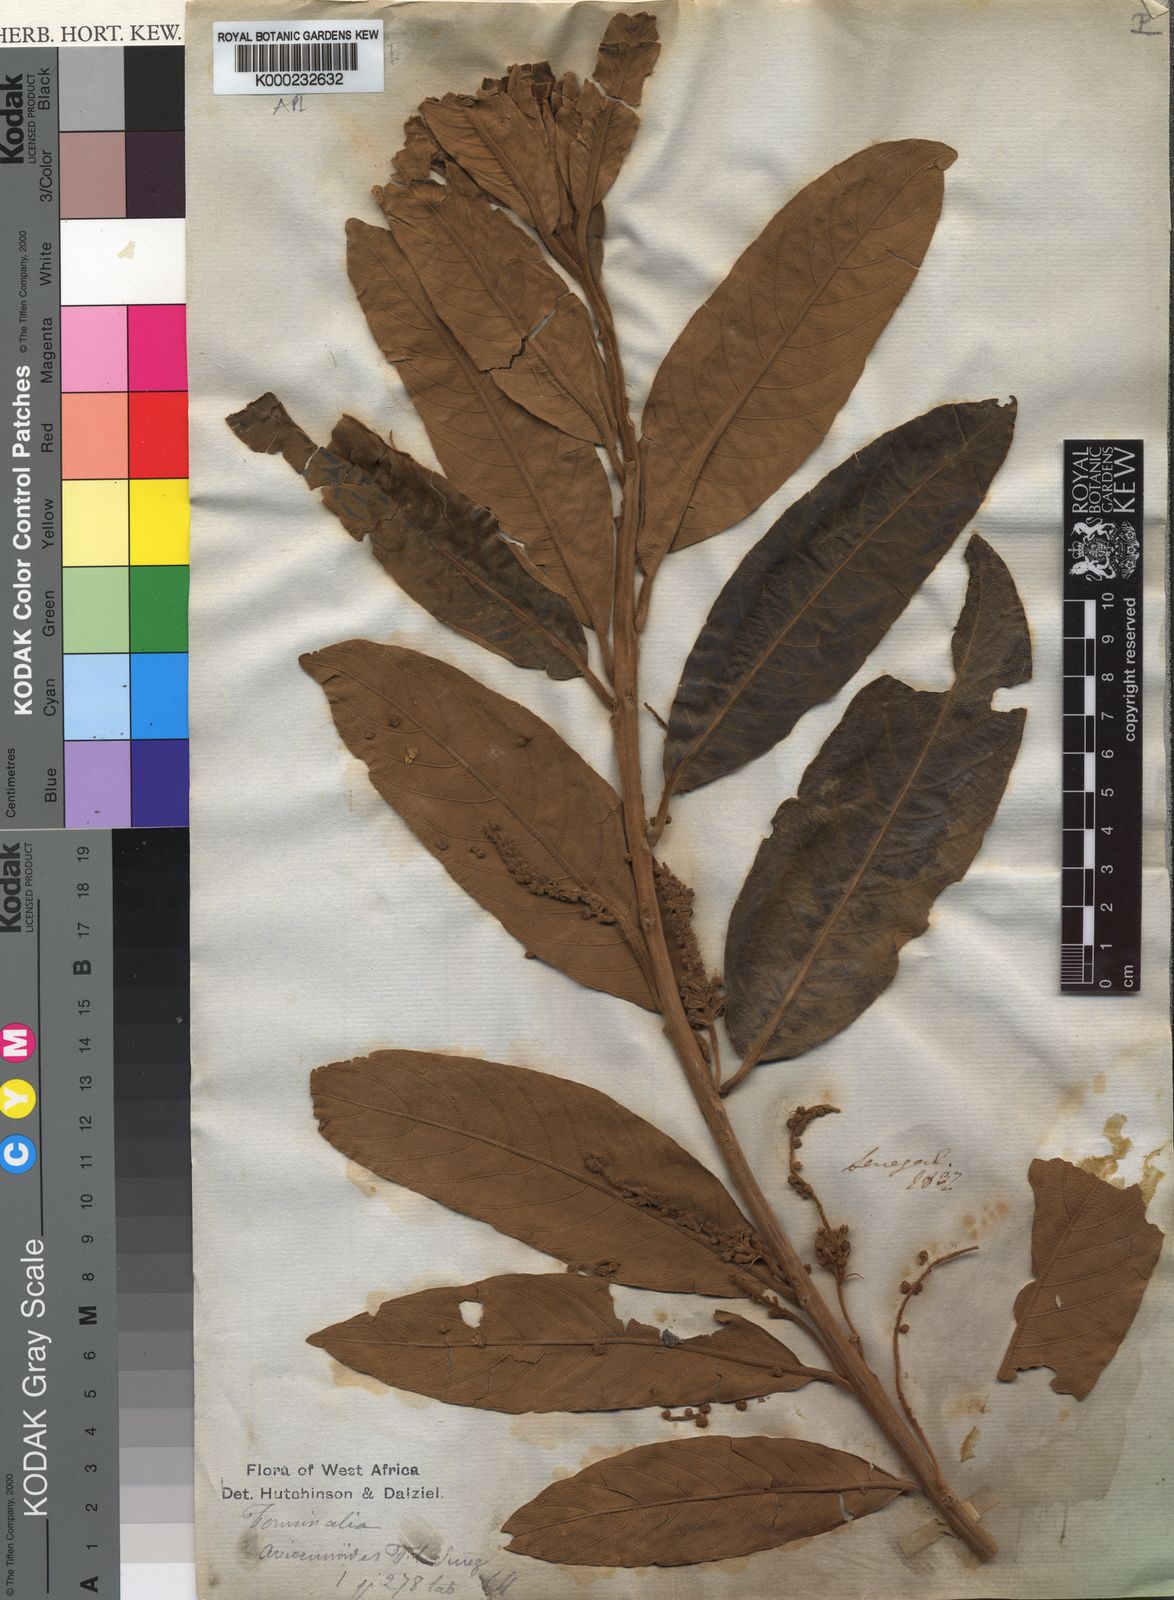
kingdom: Plantae
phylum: Tracheophyta
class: Magnoliopsida
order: Myrtales
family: Combretaceae
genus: Terminalia
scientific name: Terminalia
